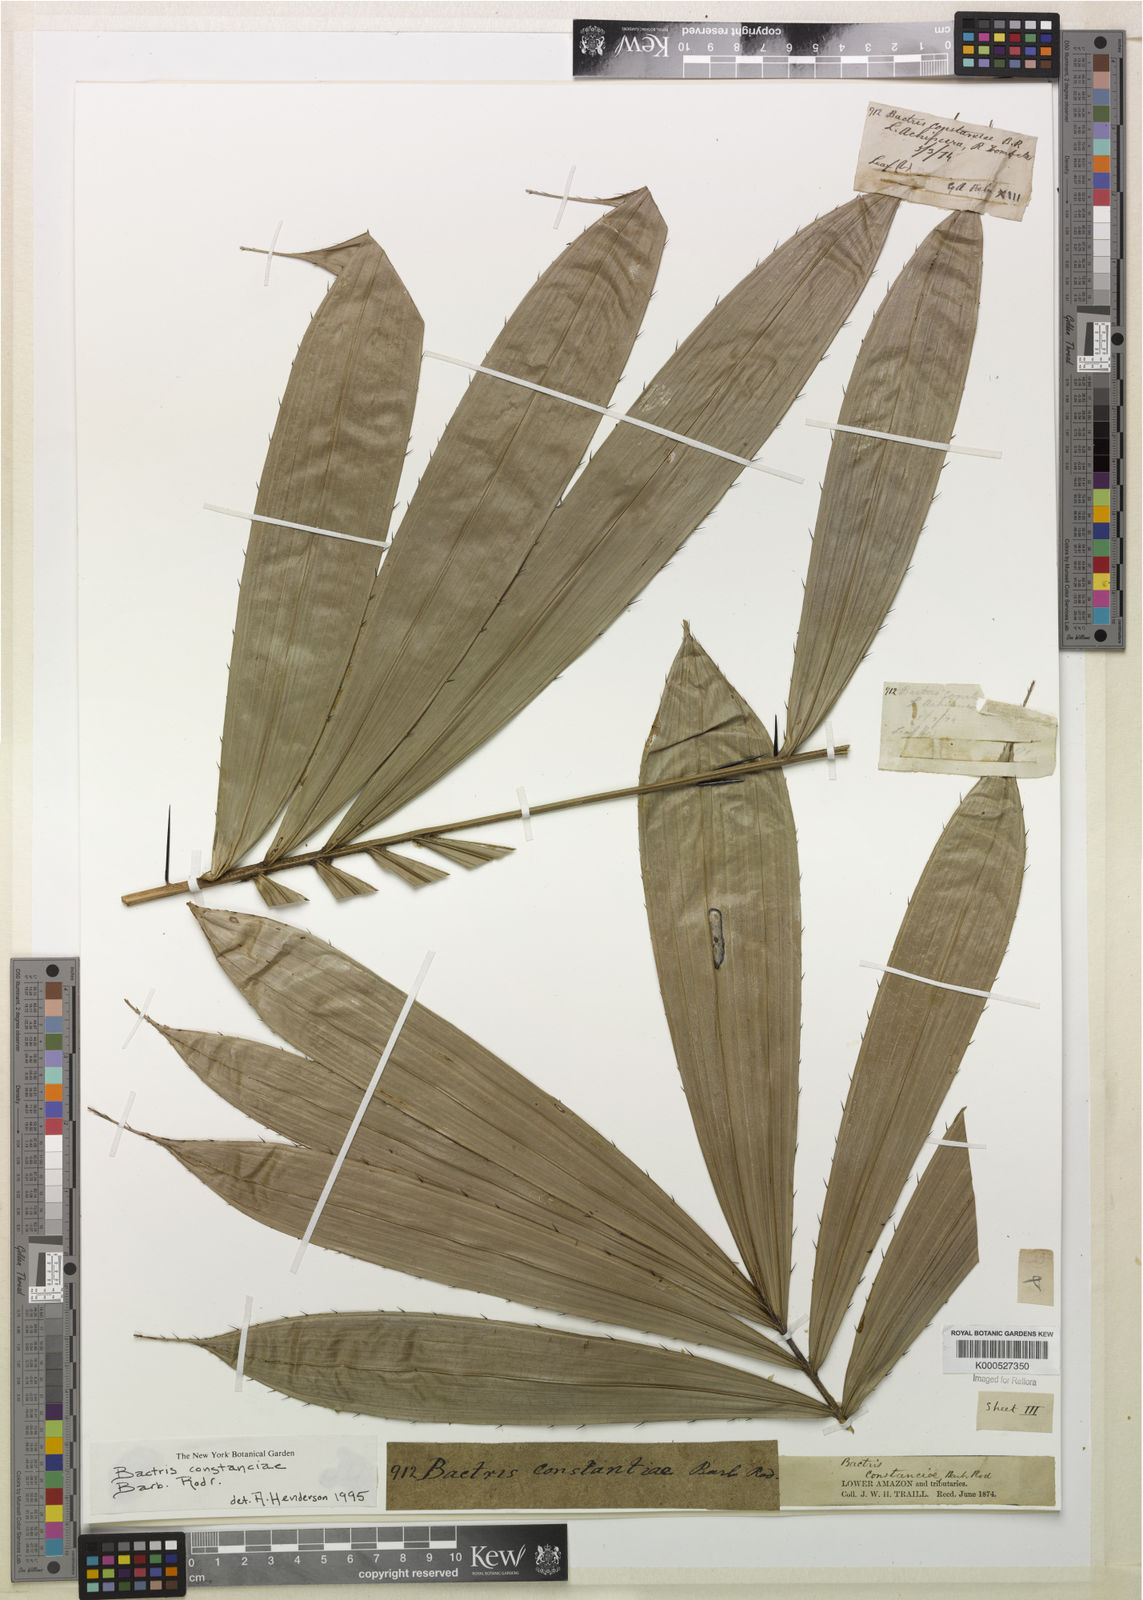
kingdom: Plantae
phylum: Tracheophyta
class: Liliopsida
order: Arecales
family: Arecaceae
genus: Bactris
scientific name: Bactris constanciae
